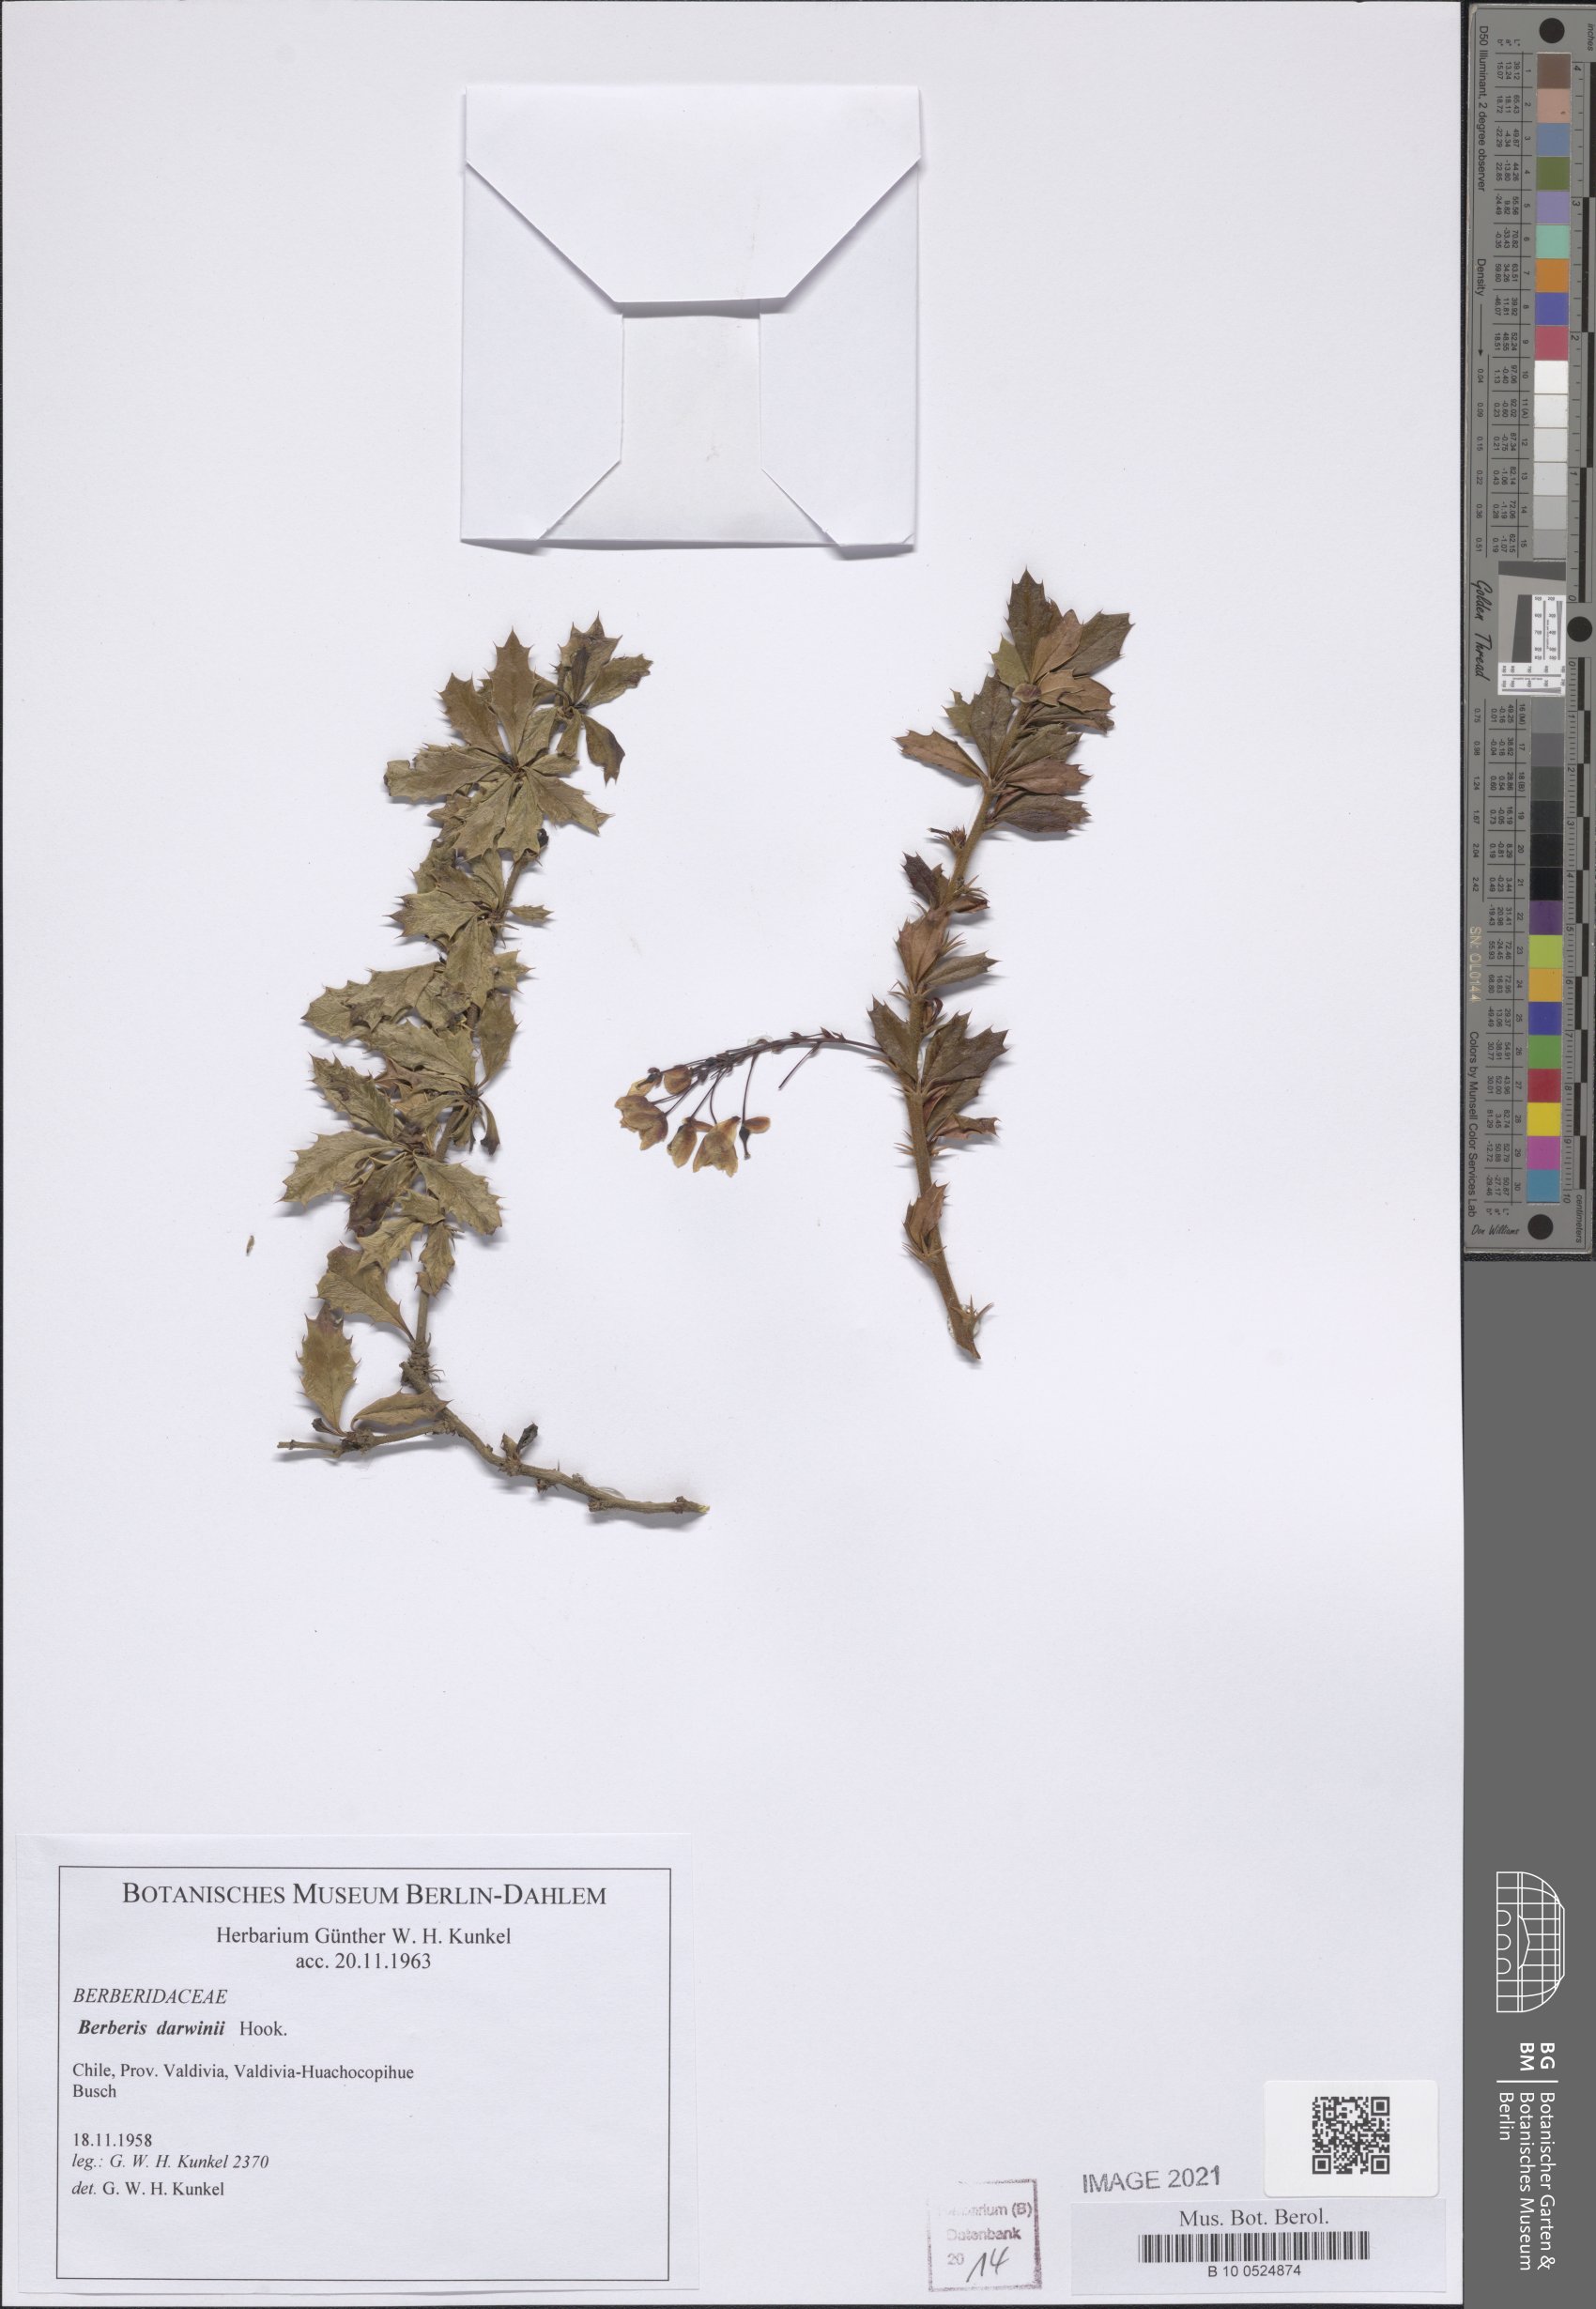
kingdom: Plantae
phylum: Tracheophyta
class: Magnoliopsida
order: Ranunculales
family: Berberidaceae
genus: Berberis
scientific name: Berberis darwinii
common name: Darwin's barberry
